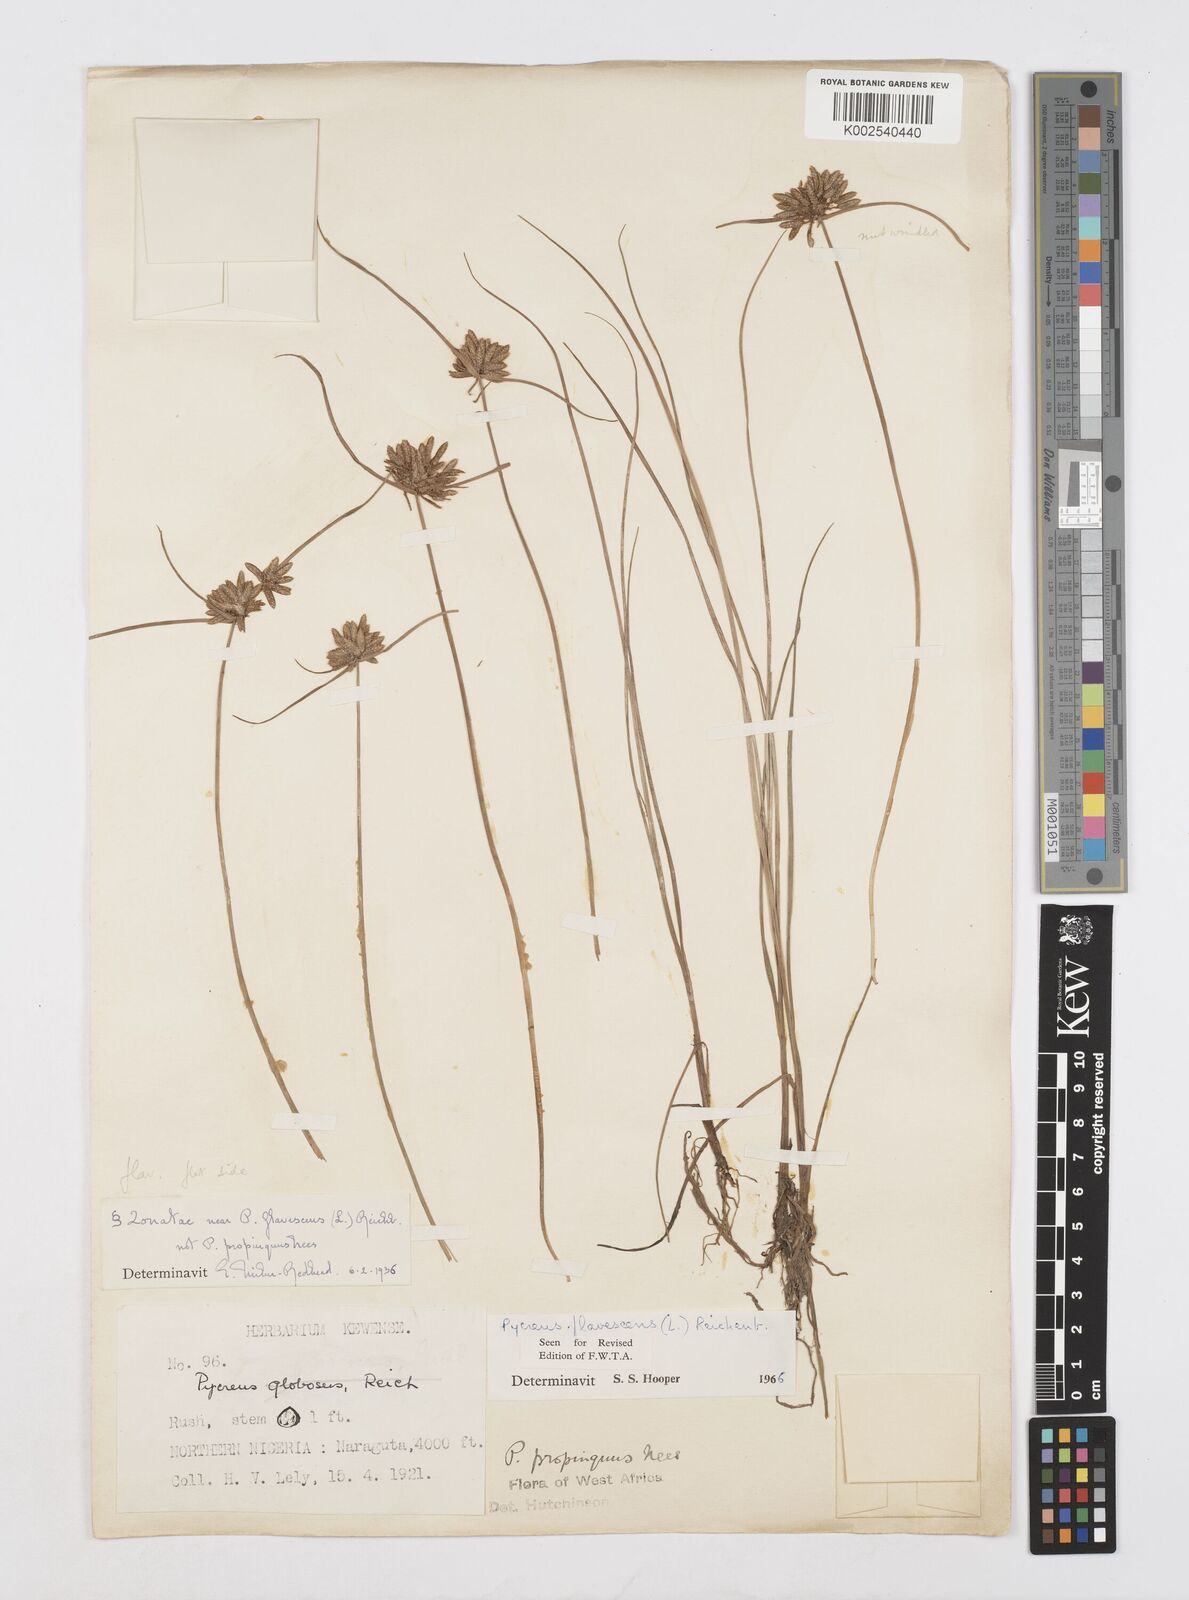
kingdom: Plantae
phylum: Tracheophyta
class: Liliopsida
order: Poales
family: Cyperaceae
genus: Cyperus
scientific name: Cyperus flavescens
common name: Yellow galingale
